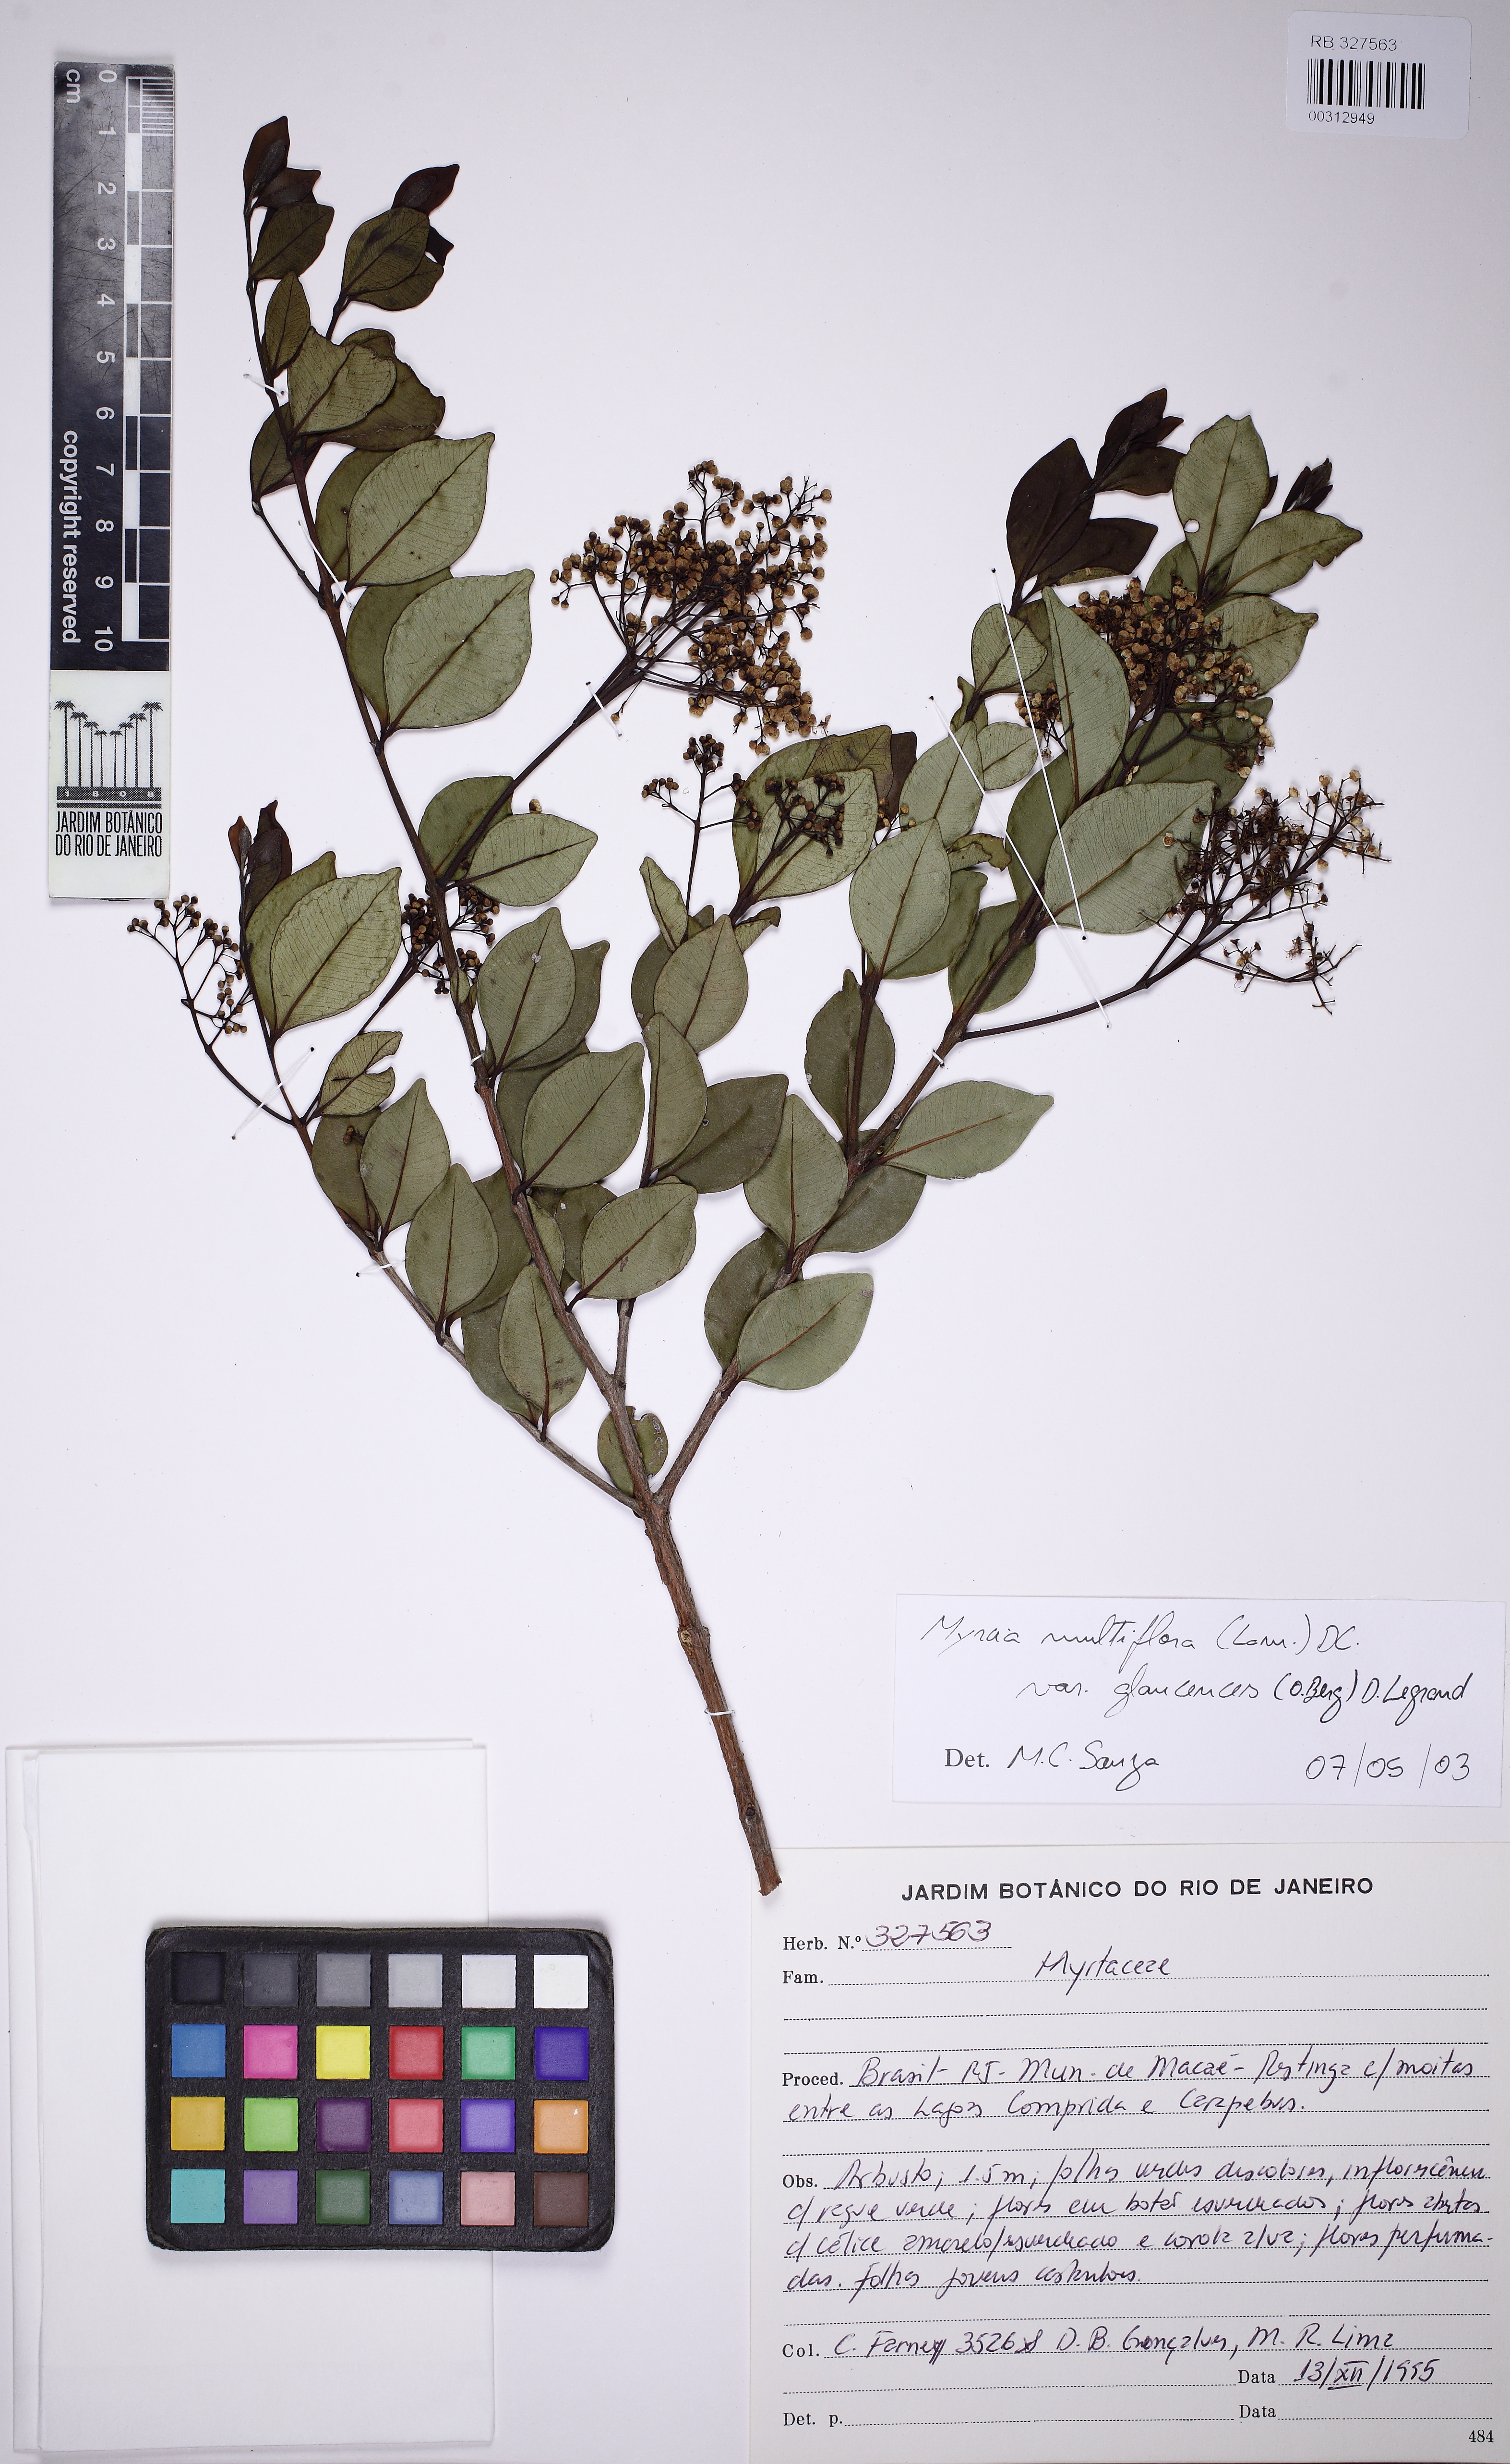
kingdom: Plantae
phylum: Tracheophyta
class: Magnoliopsida
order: Myrtales
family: Myrtaceae
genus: Myrcia
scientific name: Myrcia multiflora
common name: Pedra hume
